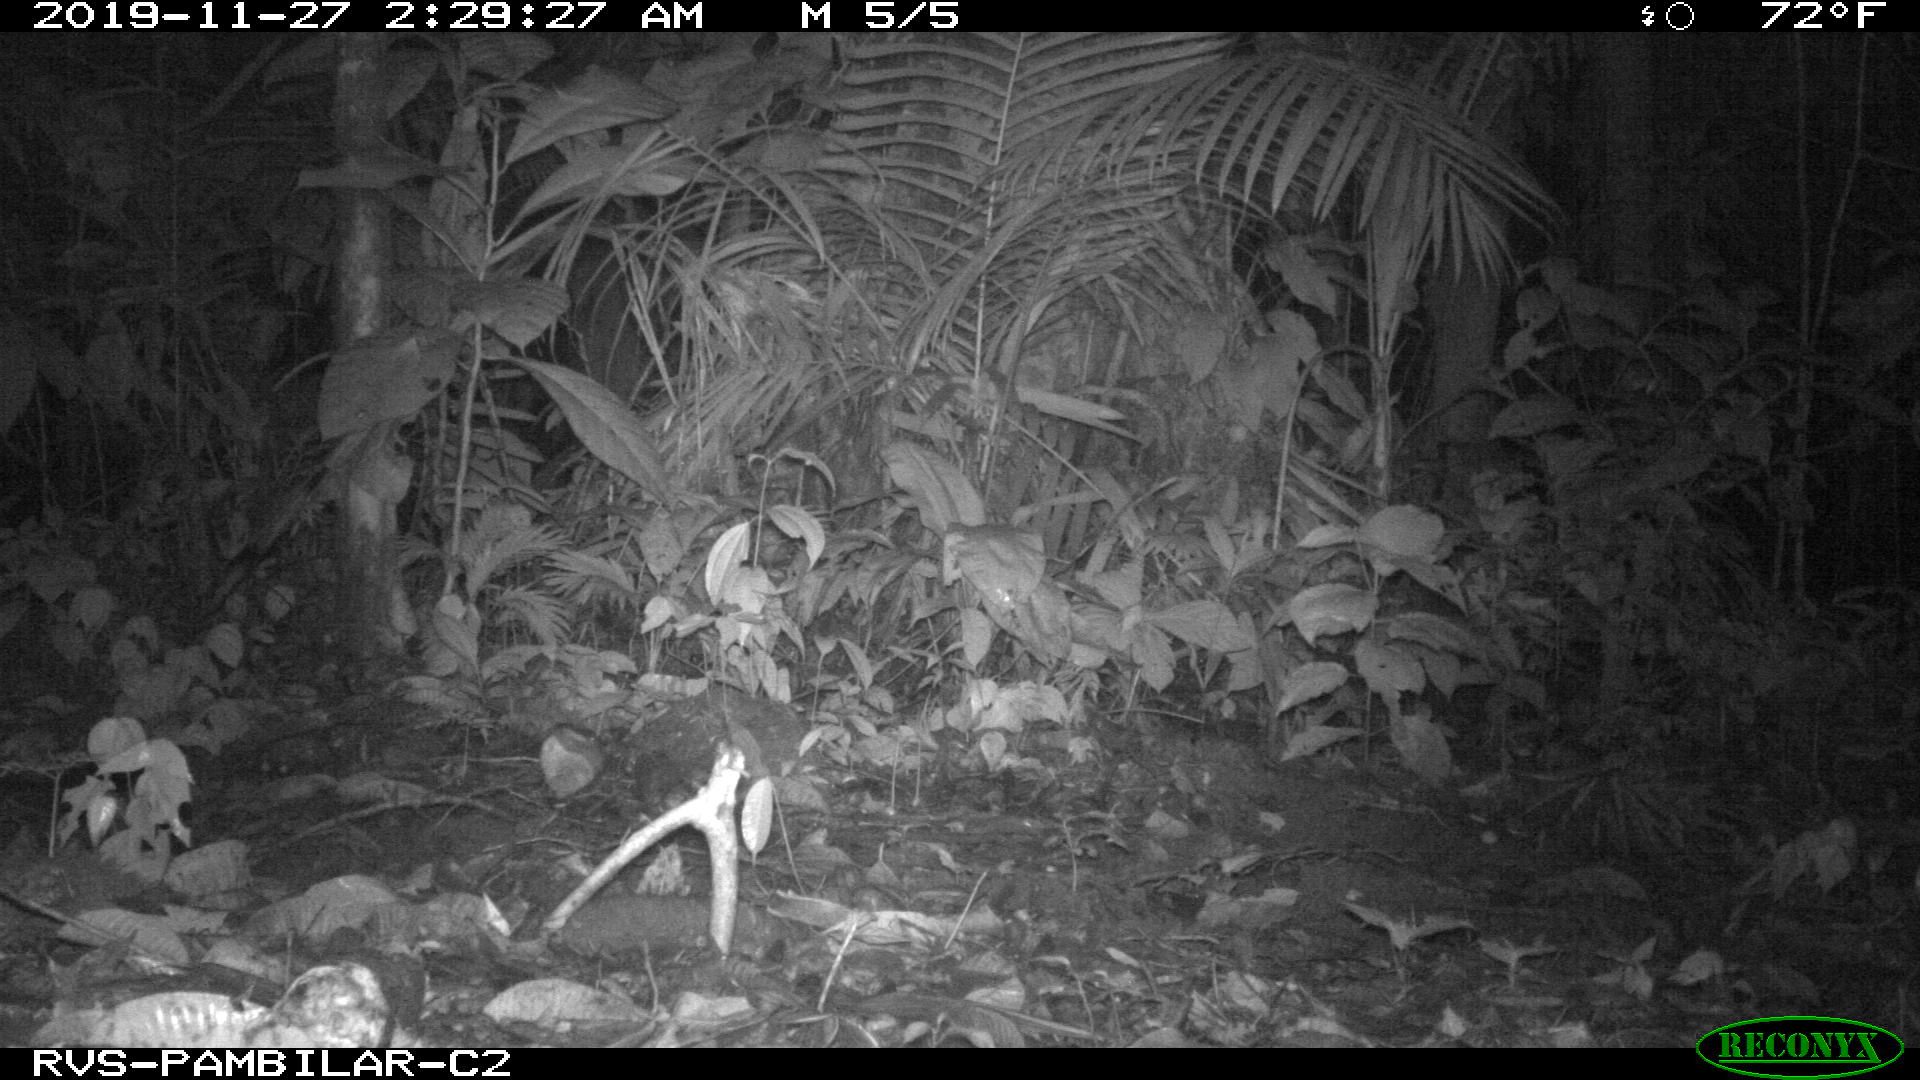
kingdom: Animalia
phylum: Chordata
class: Mammalia
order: Carnivora
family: Felidae
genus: Leopardus
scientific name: Leopardus pardalis
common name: Ocelot
